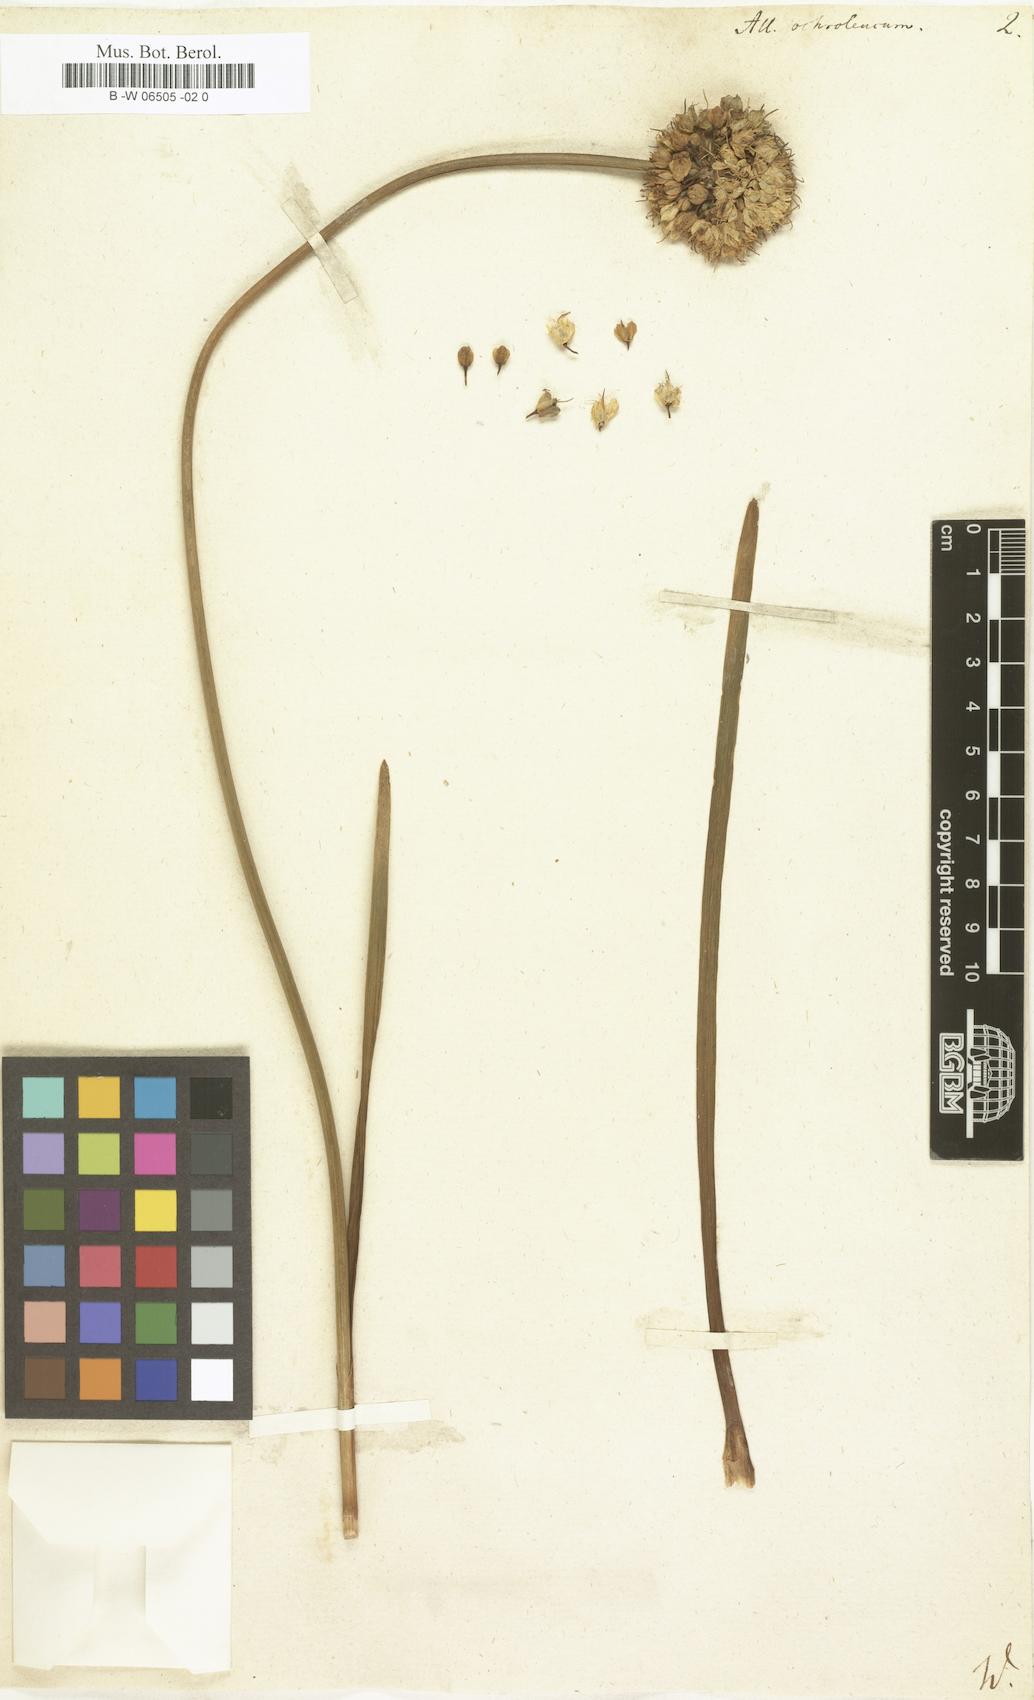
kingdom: Plantae
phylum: Tracheophyta
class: Liliopsida
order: Asparagales
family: Amaryllidaceae
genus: Allium
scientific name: Allium
